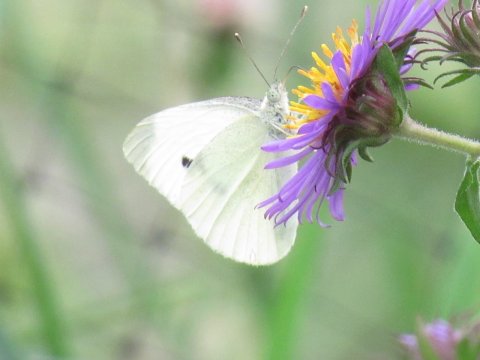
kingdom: Animalia
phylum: Arthropoda
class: Insecta
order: Lepidoptera
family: Pieridae
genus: Pieris
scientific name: Pieris rapae
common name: Cabbage White
